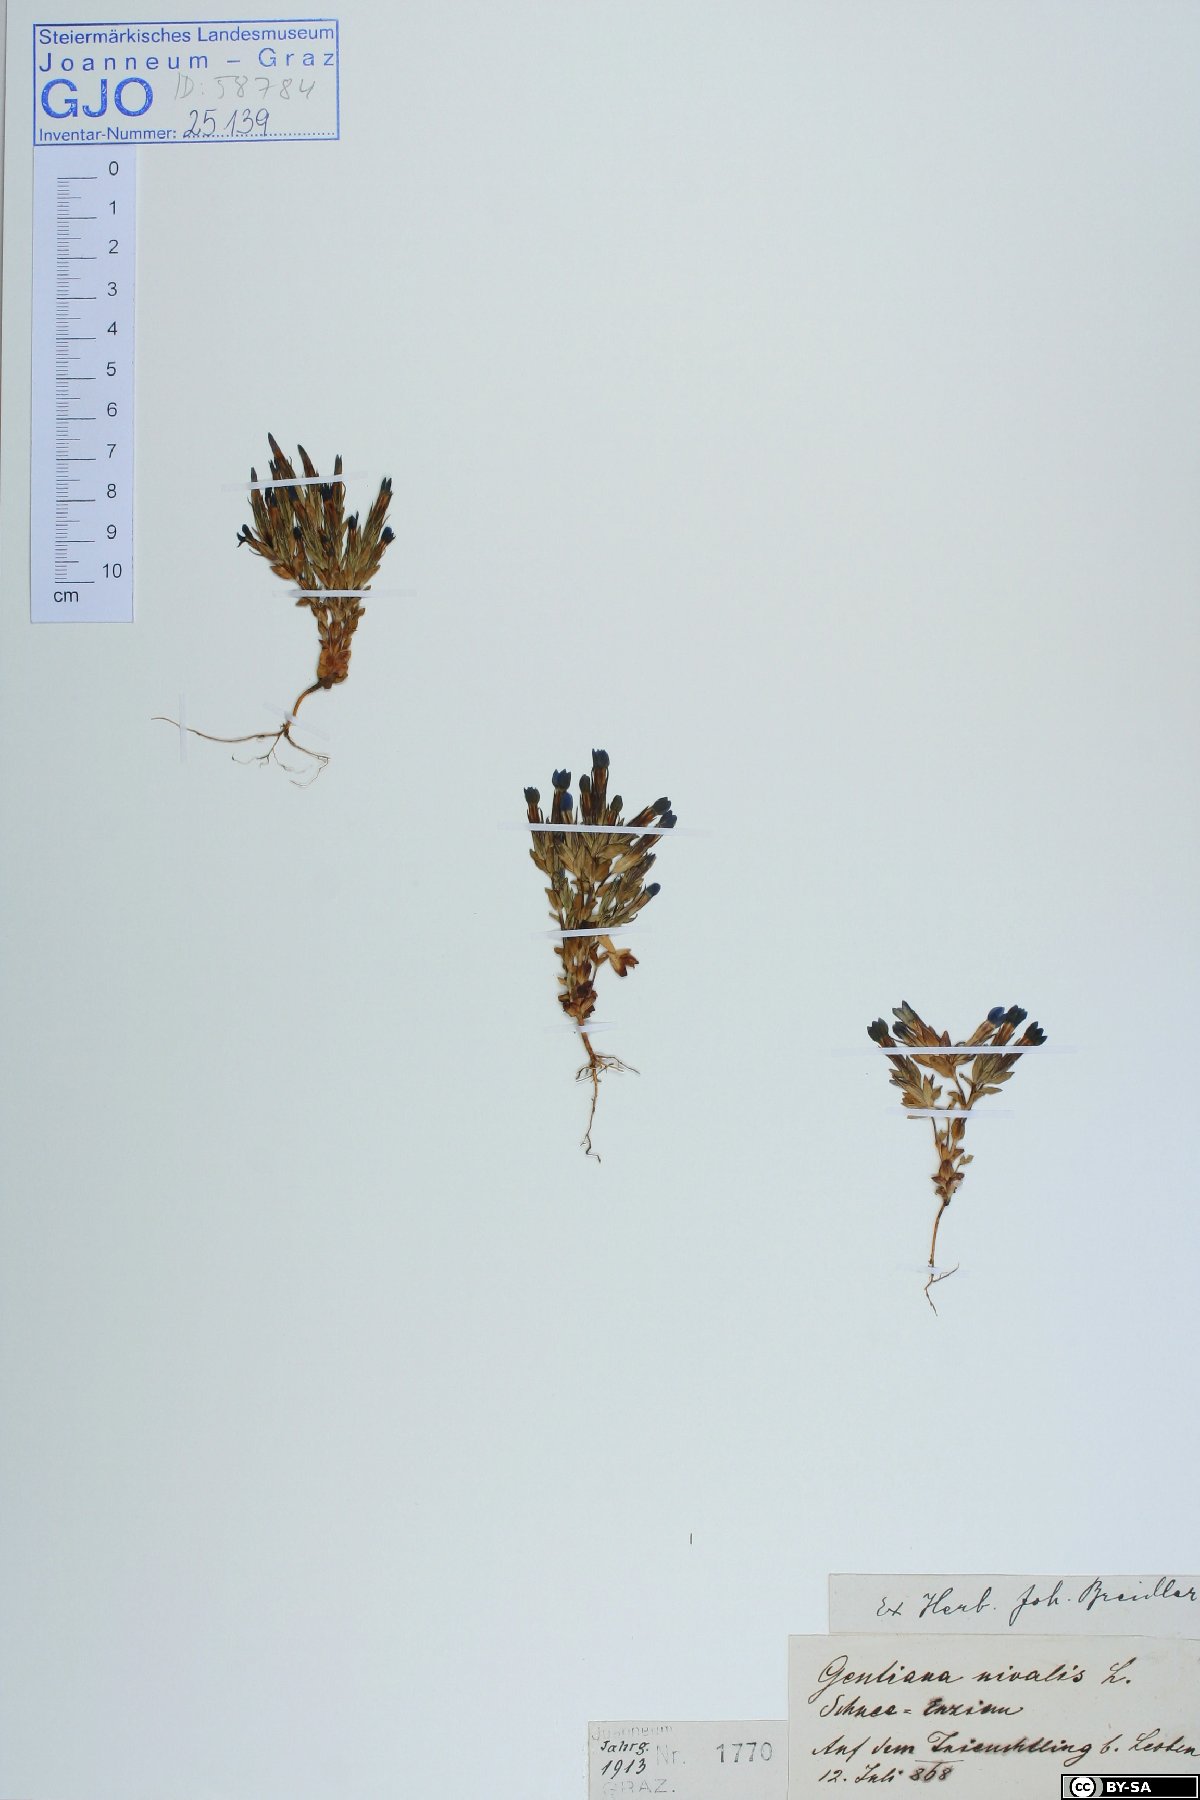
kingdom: Plantae
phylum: Tracheophyta
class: Magnoliopsida
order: Gentianales
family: Gentianaceae
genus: Gentiana
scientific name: Gentiana nivalis
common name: Alpine gentian
